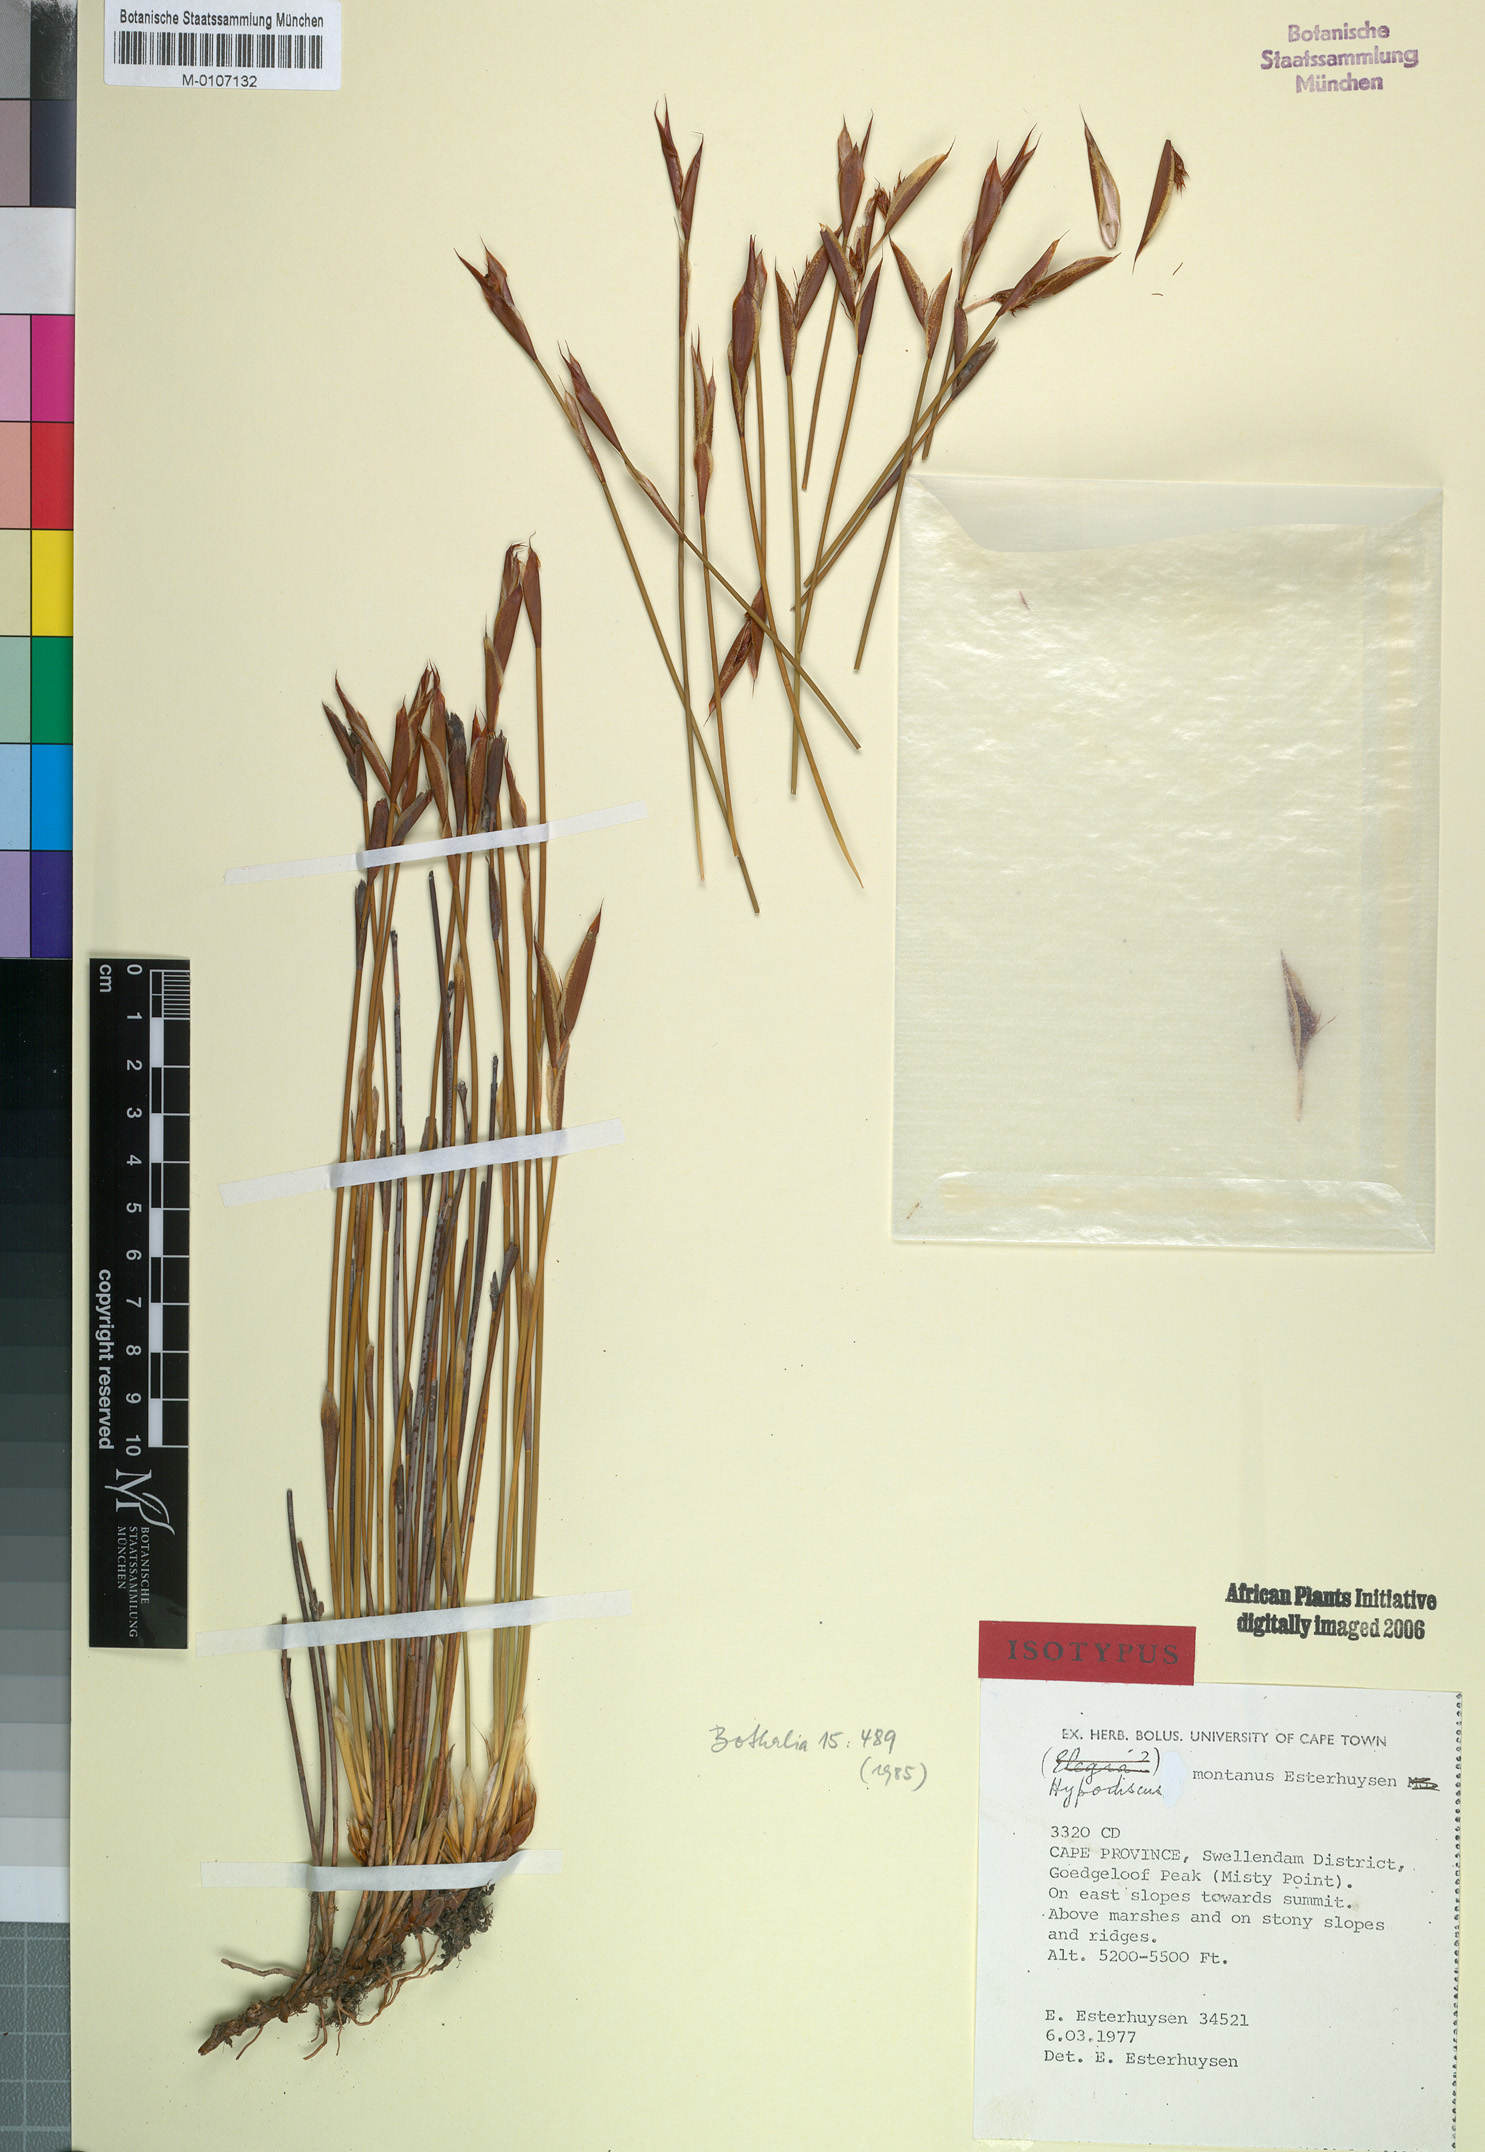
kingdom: Plantae
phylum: Tracheophyta
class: Liliopsida
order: Poales
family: Restionaceae
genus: Hypodiscus
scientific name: Hypodiscus montanus
